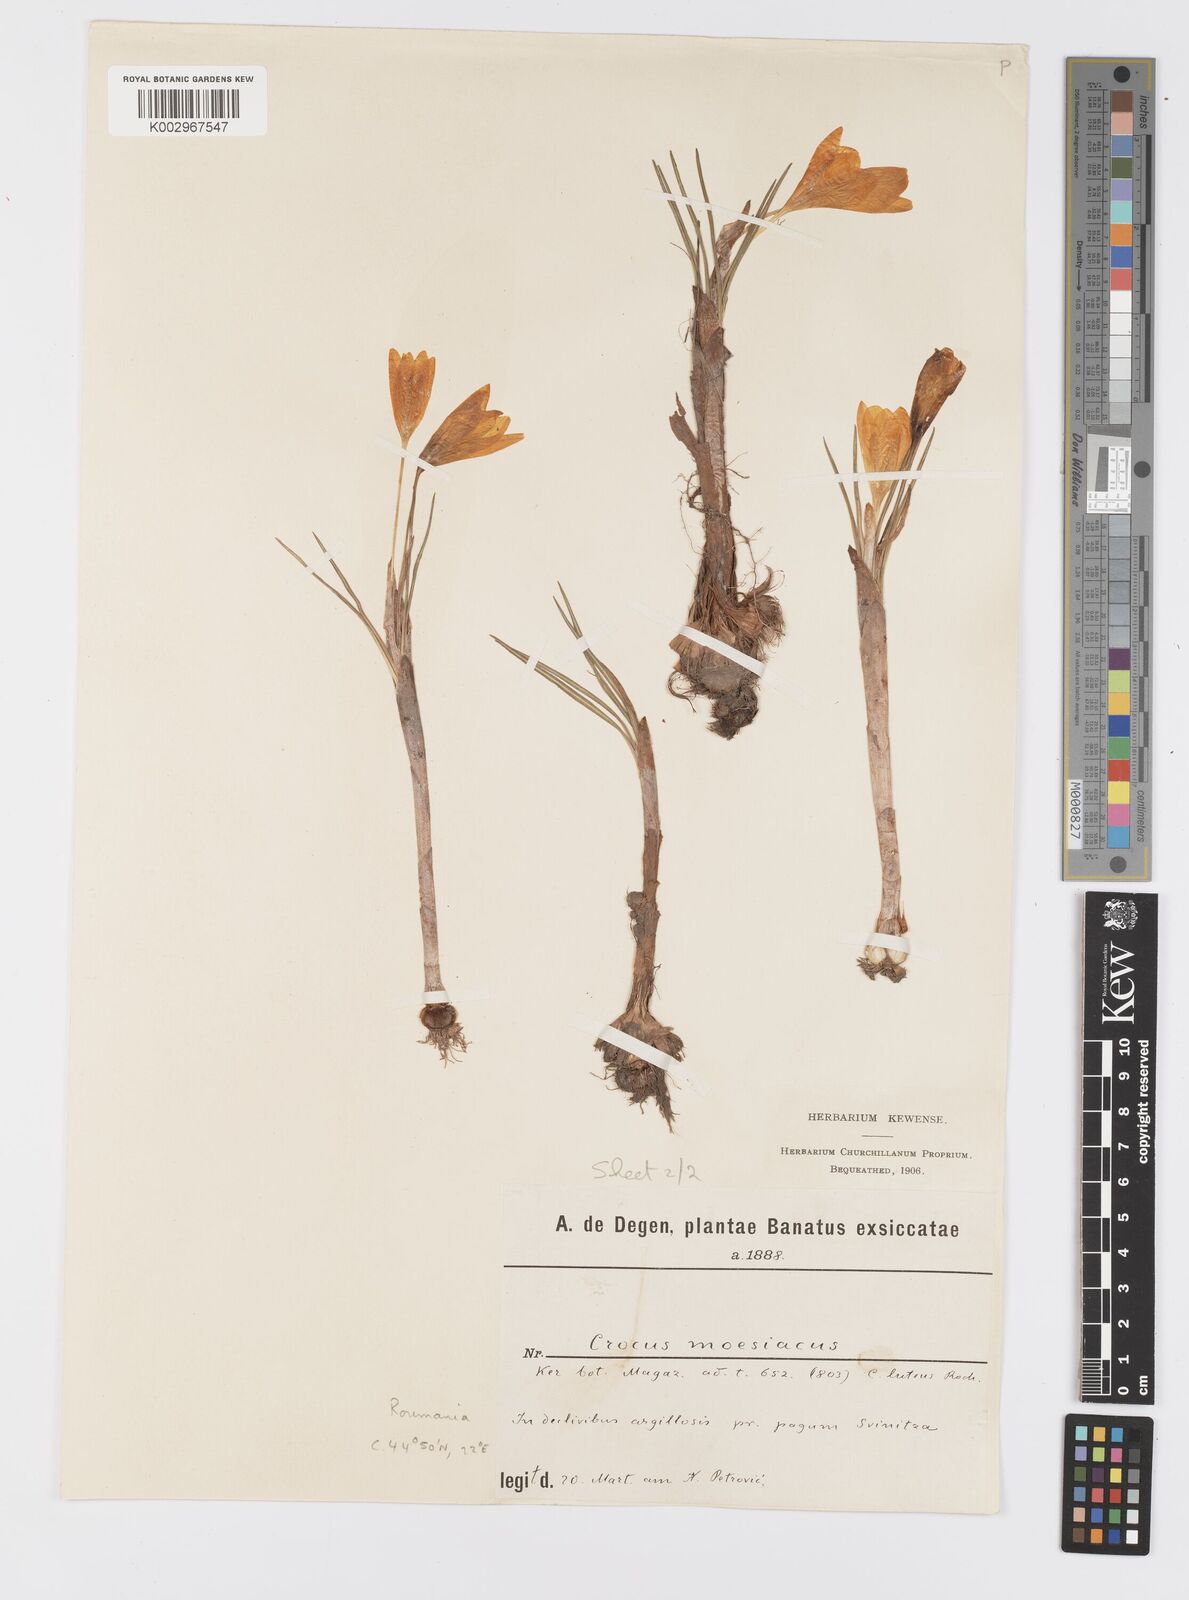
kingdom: Plantae
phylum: Tracheophyta
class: Liliopsida
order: Asparagales
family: Iridaceae
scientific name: Iridaceae
